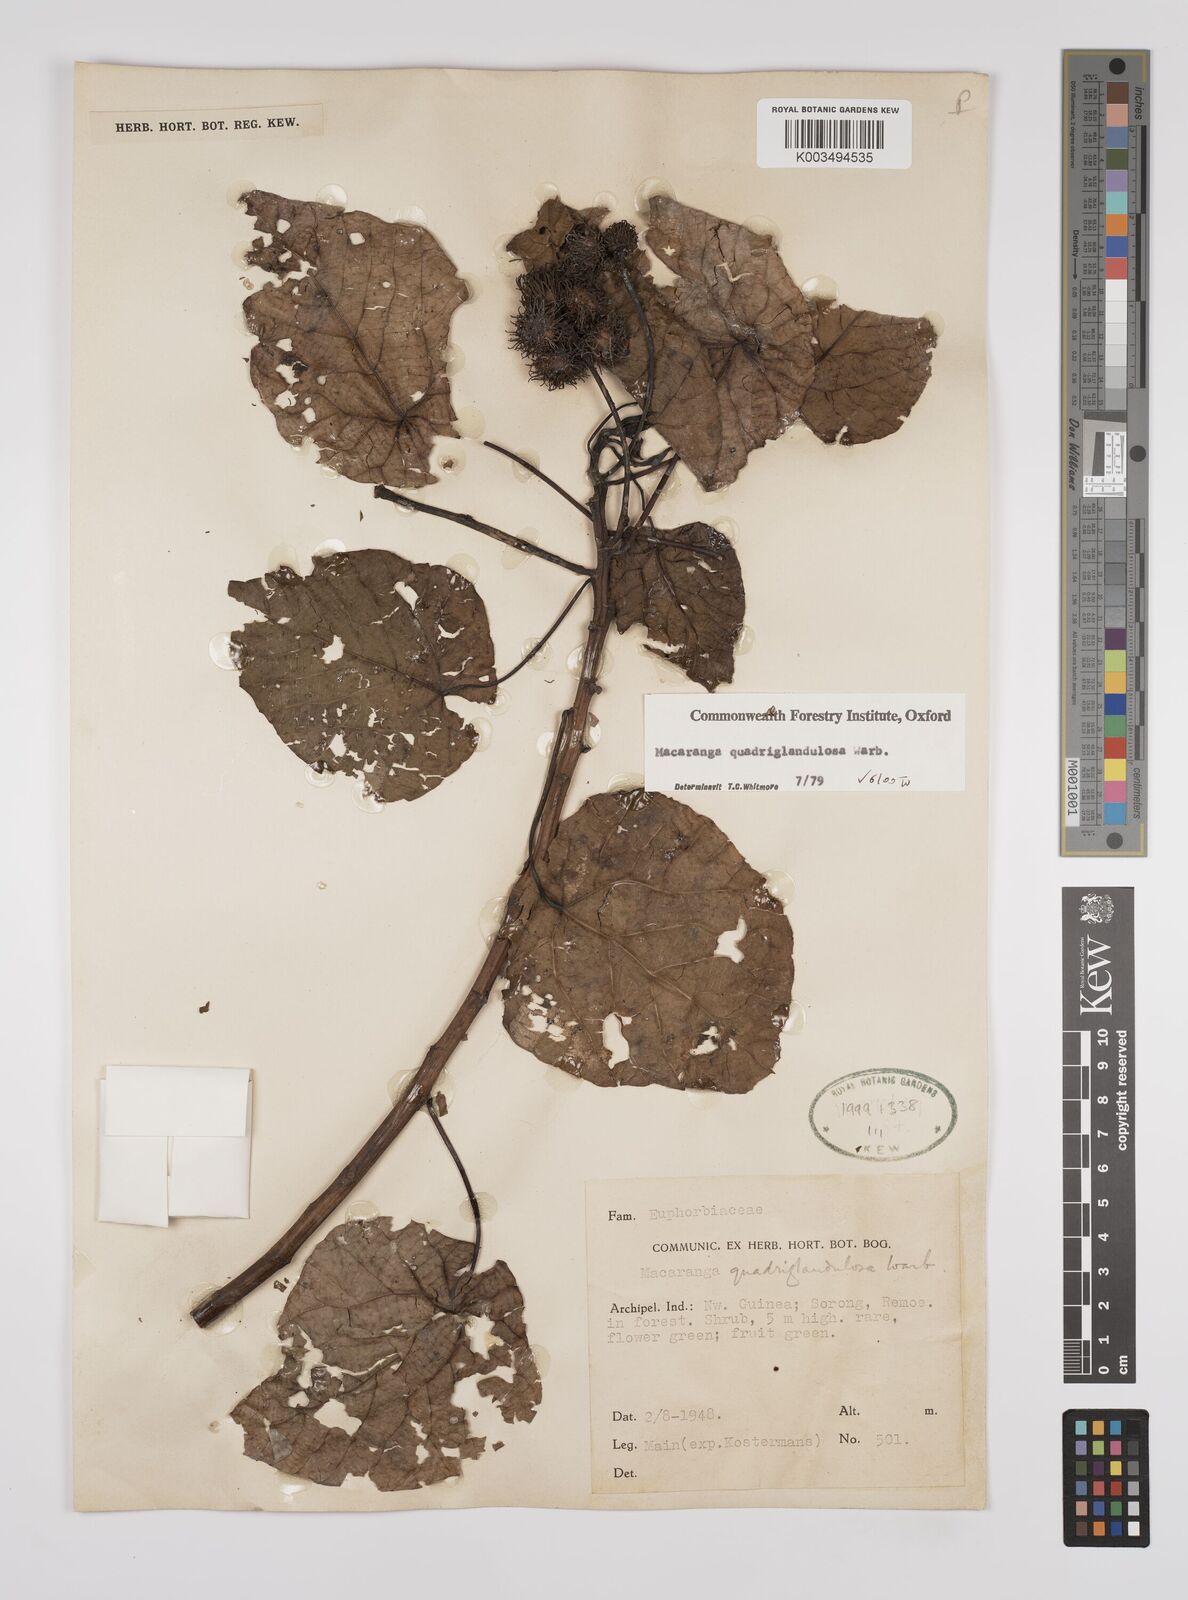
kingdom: Plantae
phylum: Tracheophyta
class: Magnoliopsida
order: Malpighiales
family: Euphorbiaceae
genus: Macaranga
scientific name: Macaranga quadriglandulosa
